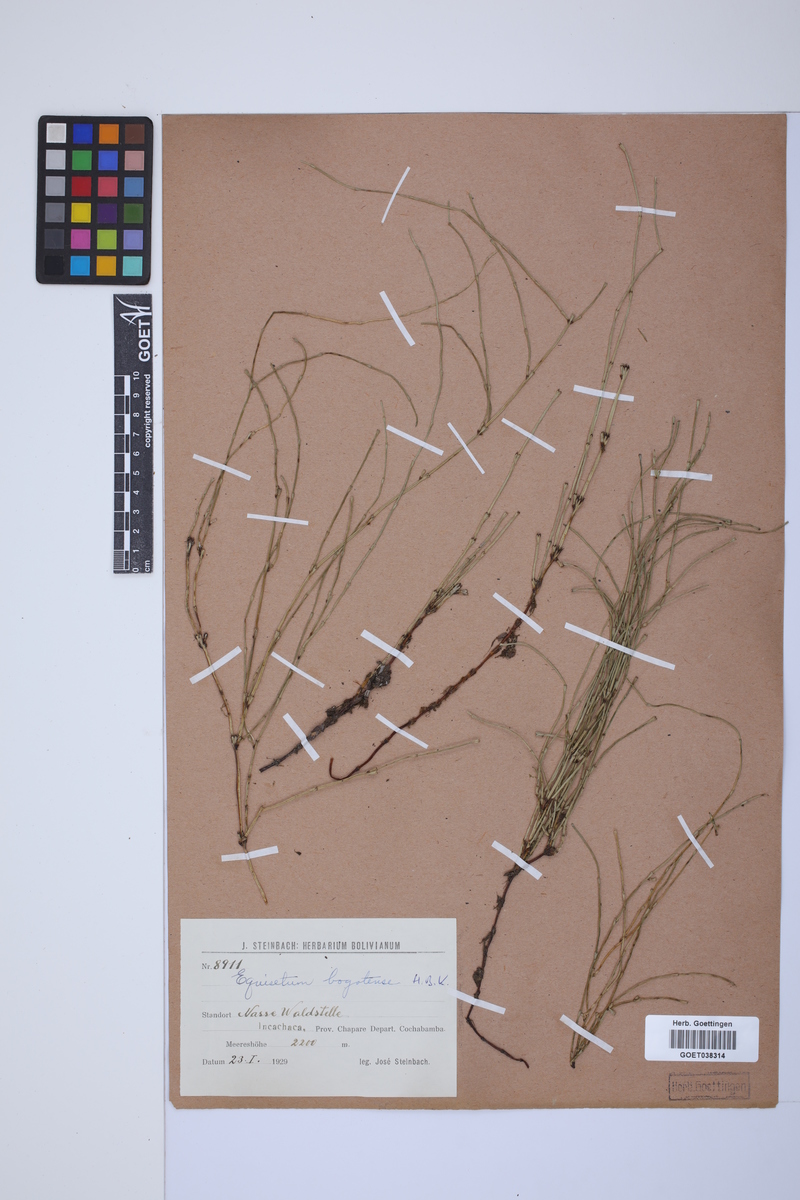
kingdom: Plantae
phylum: Tracheophyta
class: Polypodiopsida
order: Equisetales
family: Equisetaceae
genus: Equisetum
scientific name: Equisetum bogotense
